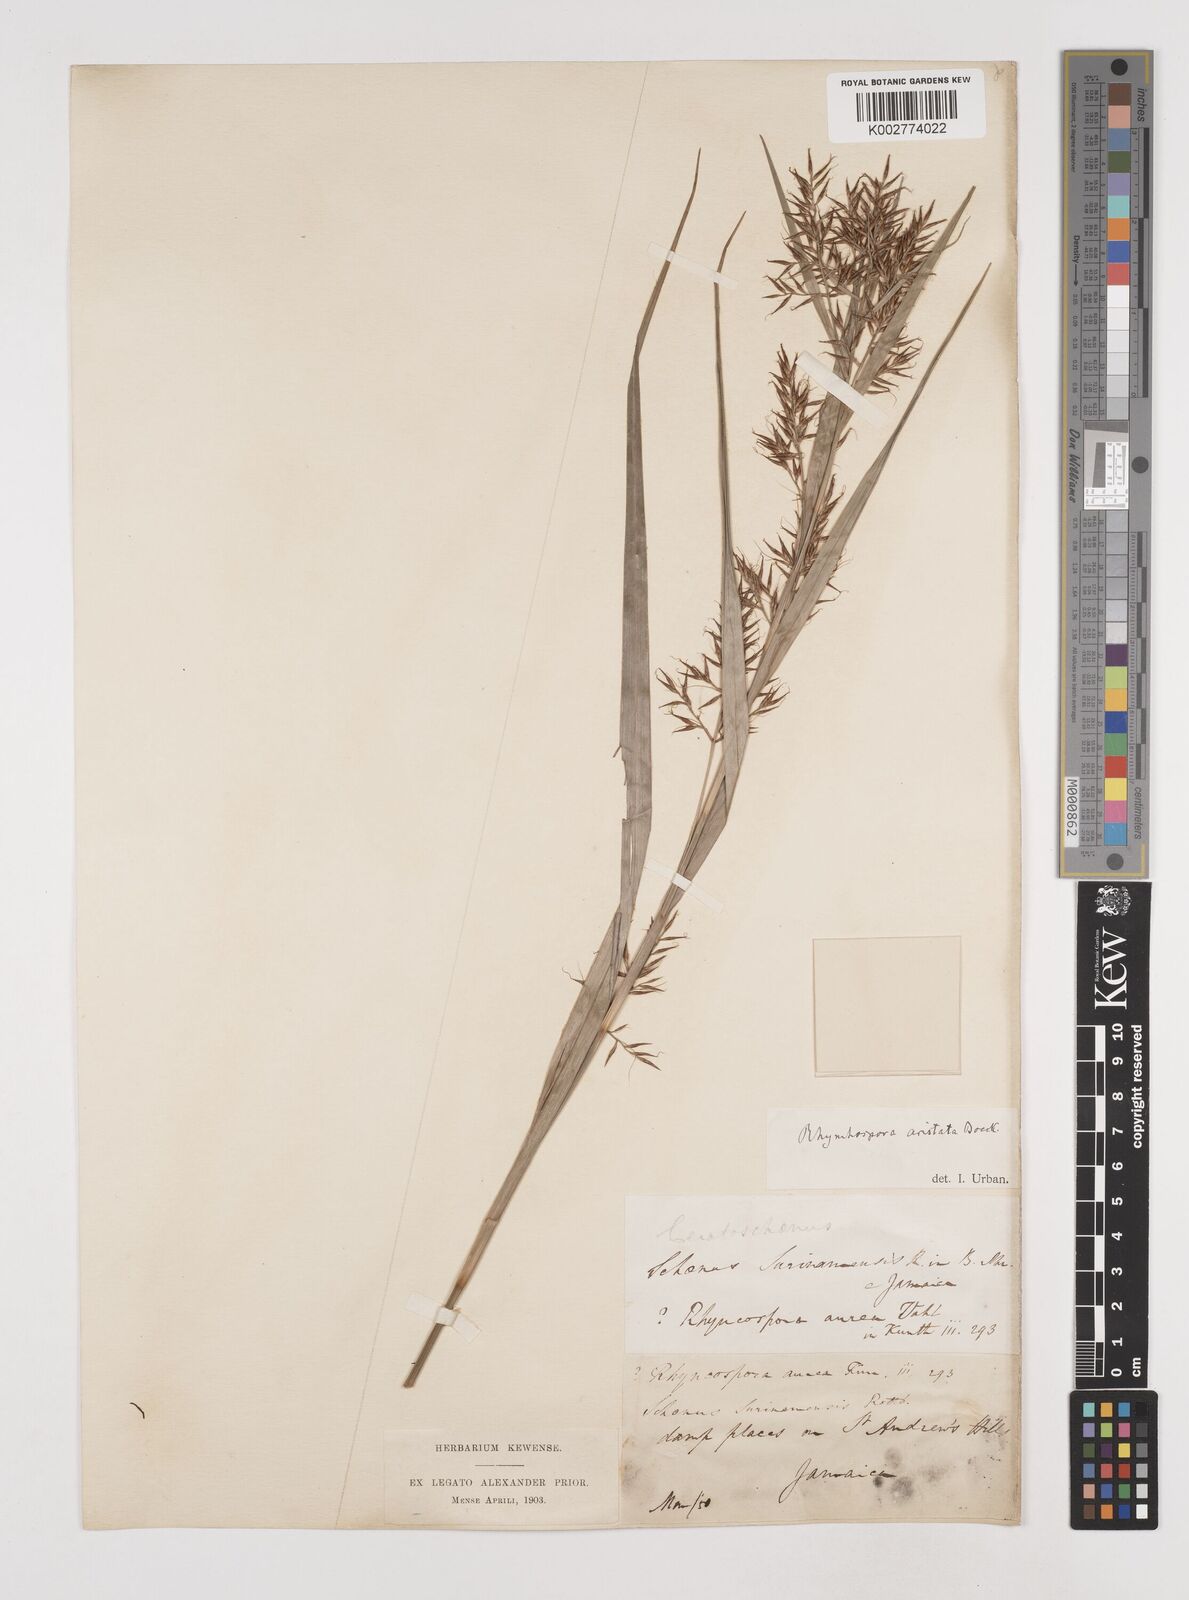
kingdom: Plantae
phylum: Tracheophyta
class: Liliopsida
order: Poales
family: Cyperaceae
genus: Rhynchospora
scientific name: Rhynchospora longiflora
